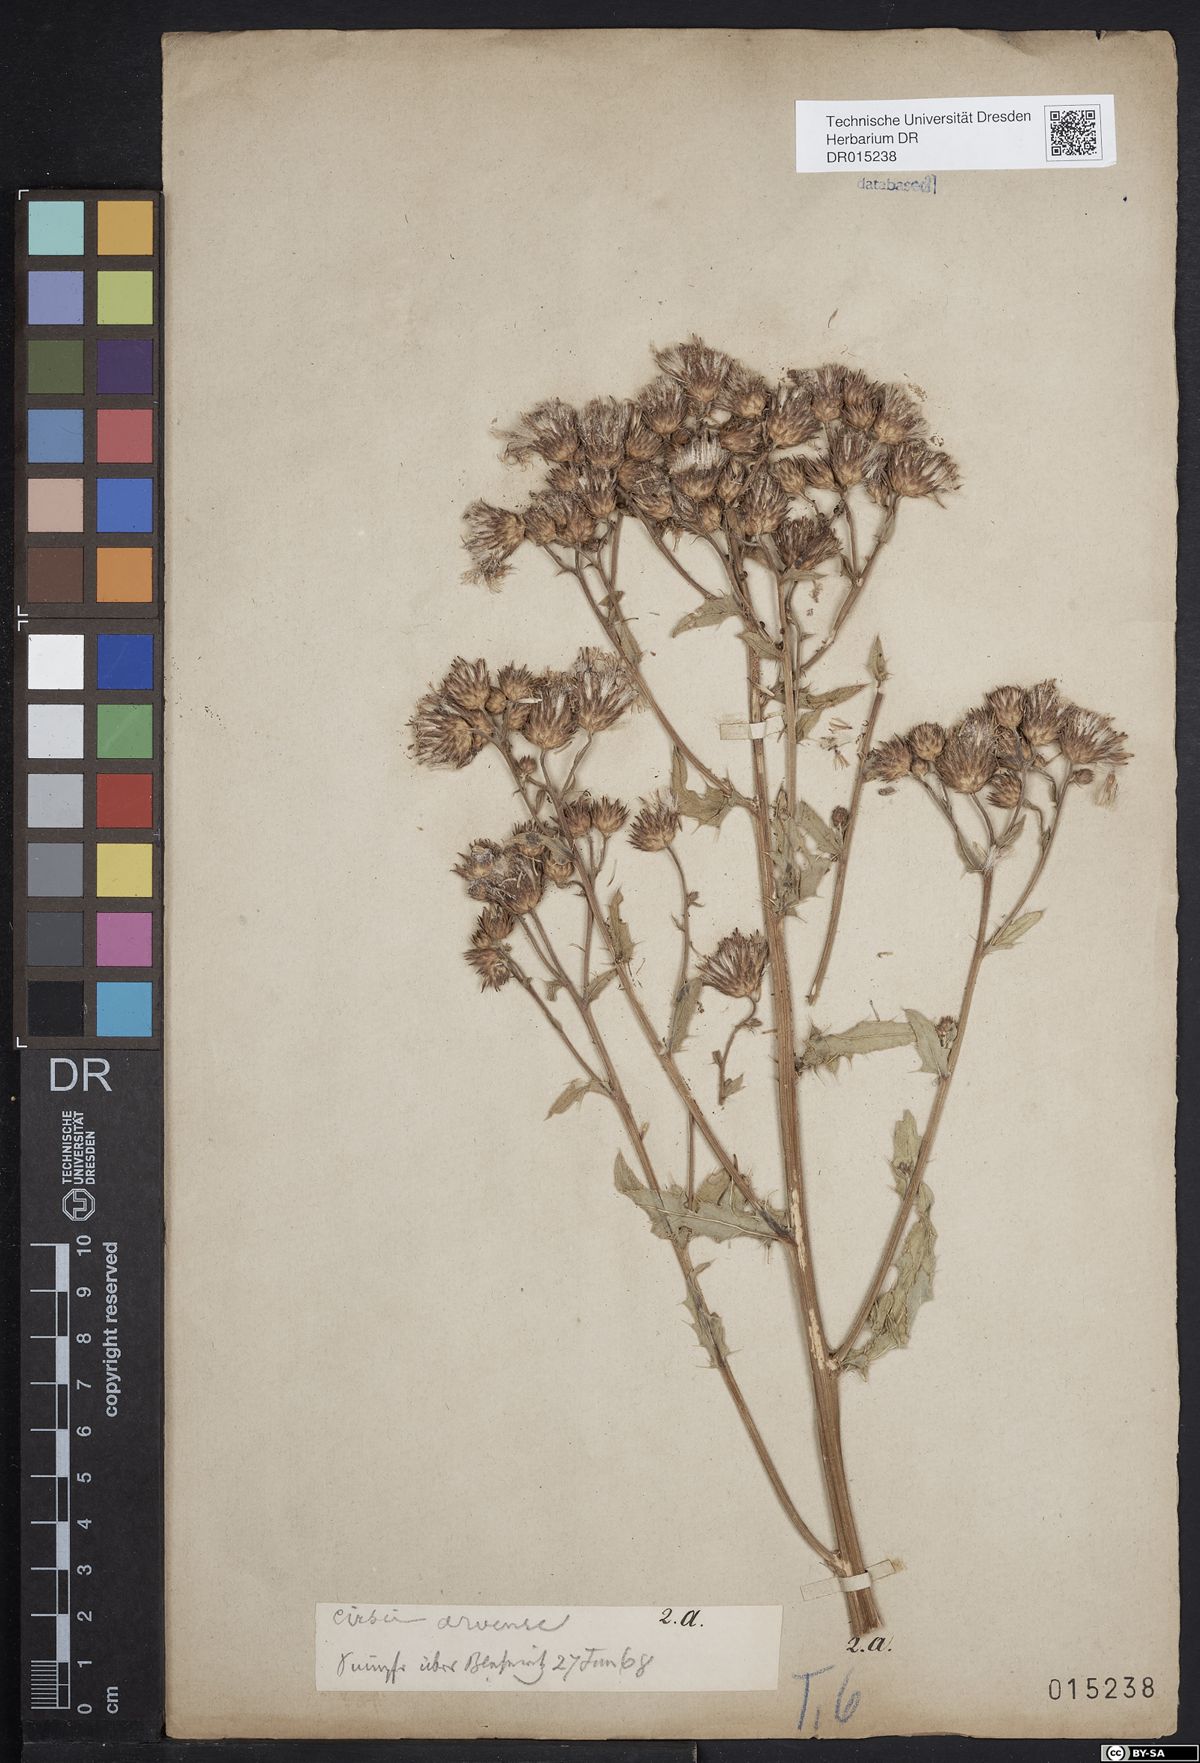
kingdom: Plantae
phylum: Tracheophyta
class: Magnoliopsida
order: Asterales
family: Asteraceae
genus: Cirsium
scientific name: Cirsium arvense
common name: Creeping thistle
